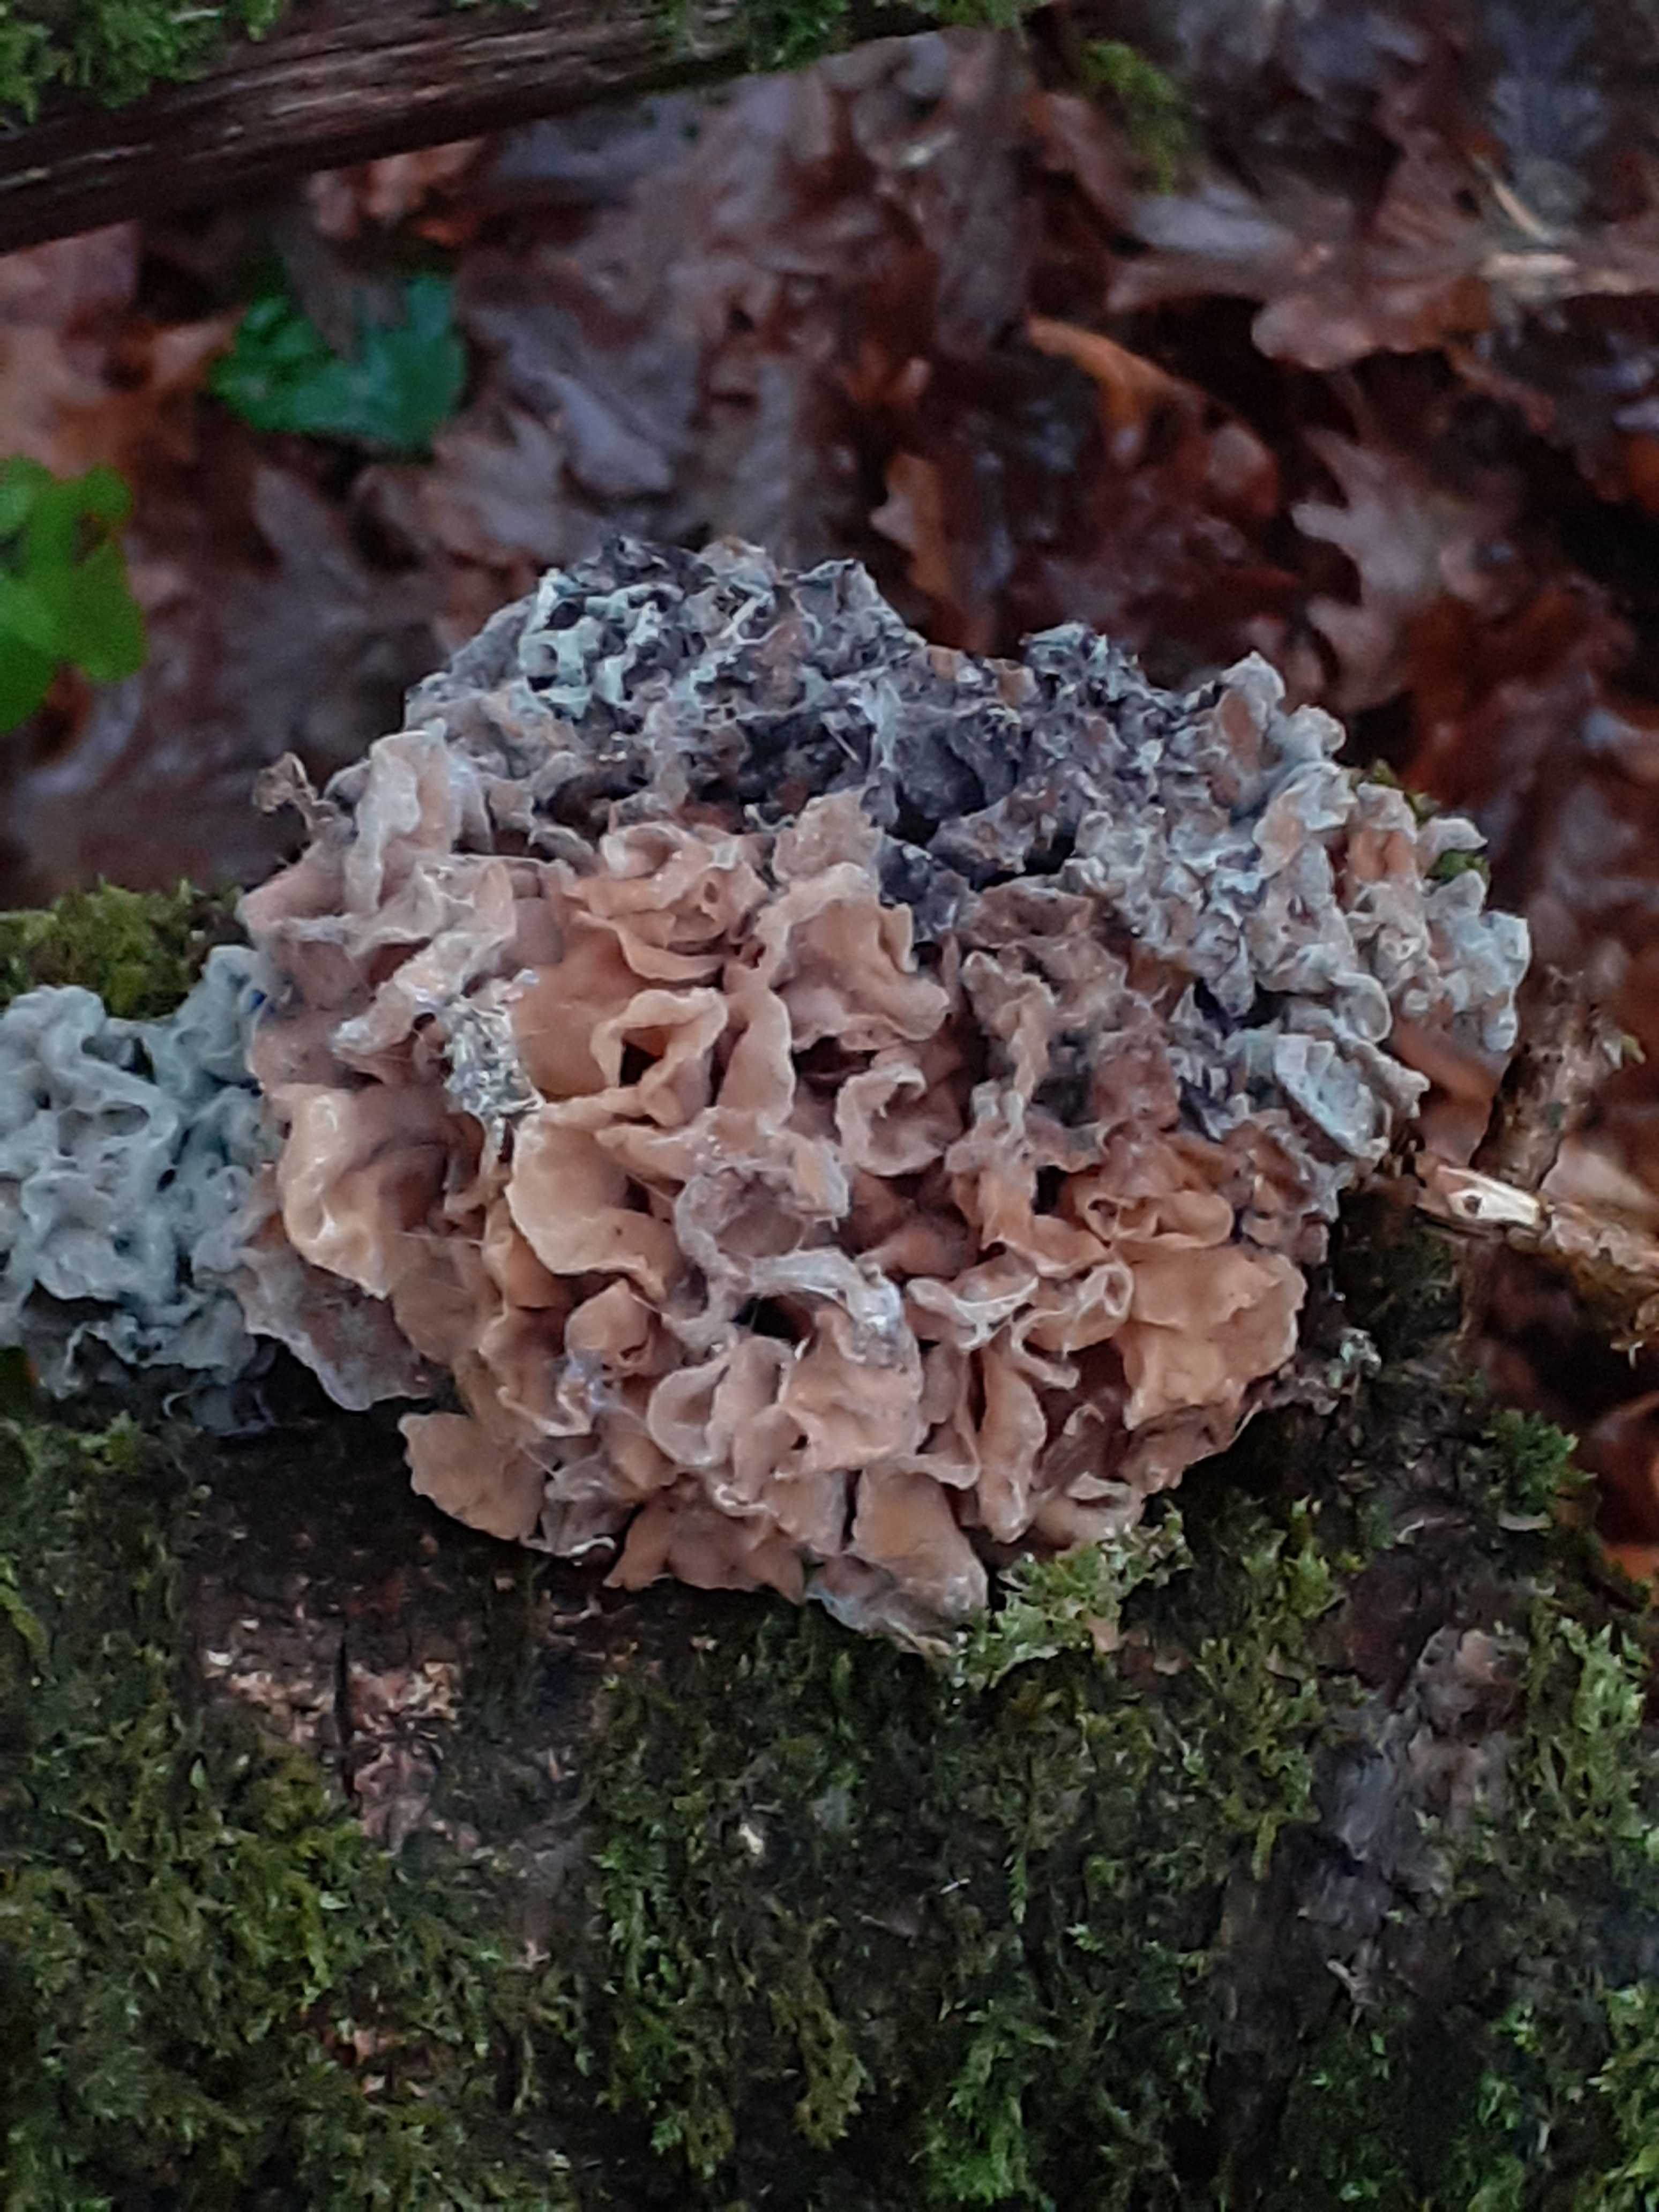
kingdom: Fungi
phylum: Basidiomycota
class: Tremellomycetes
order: Tremellales
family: Tremellaceae
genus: Phaeotremella
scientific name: Phaeotremella frondosa
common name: kæmpe-bævresvamp
